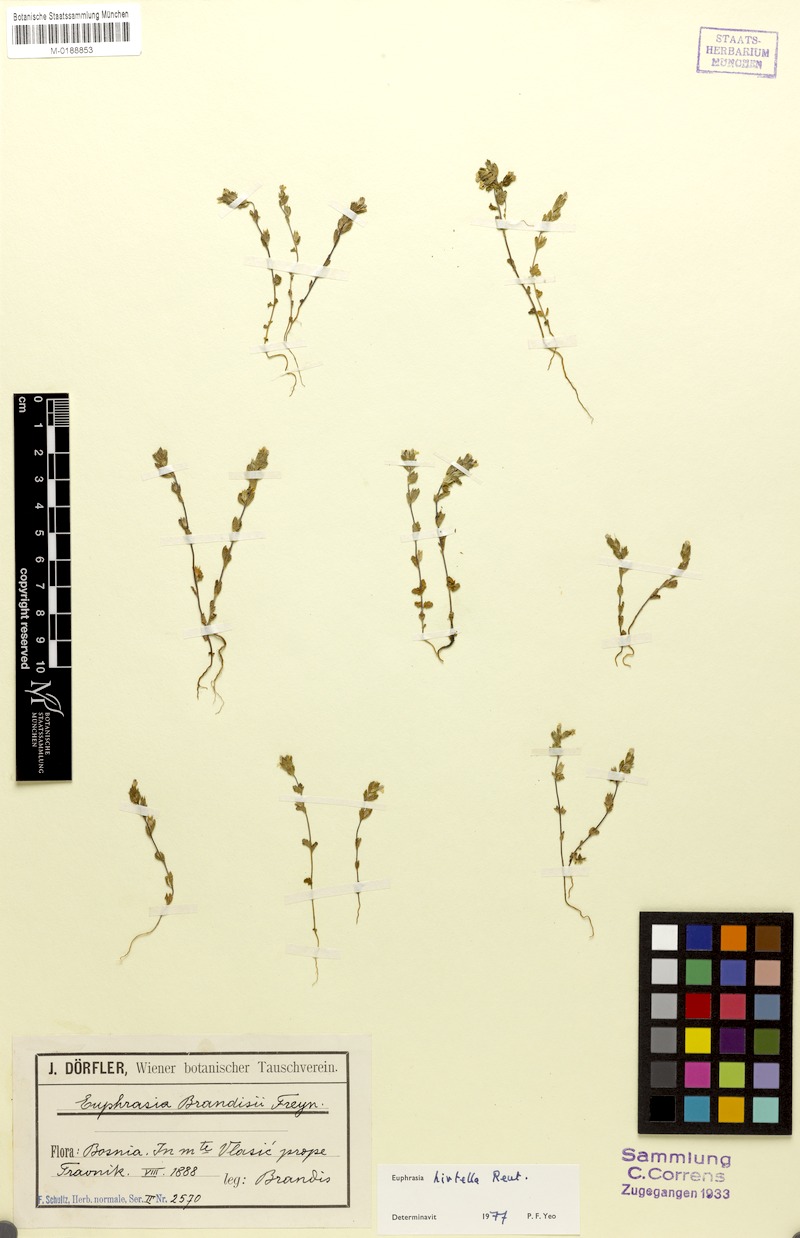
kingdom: Plantae
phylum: Tracheophyta
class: Magnoliopsida
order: Lamiales
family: Orobanchaceae
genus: Euphrasia
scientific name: Euphrasia hirtella
